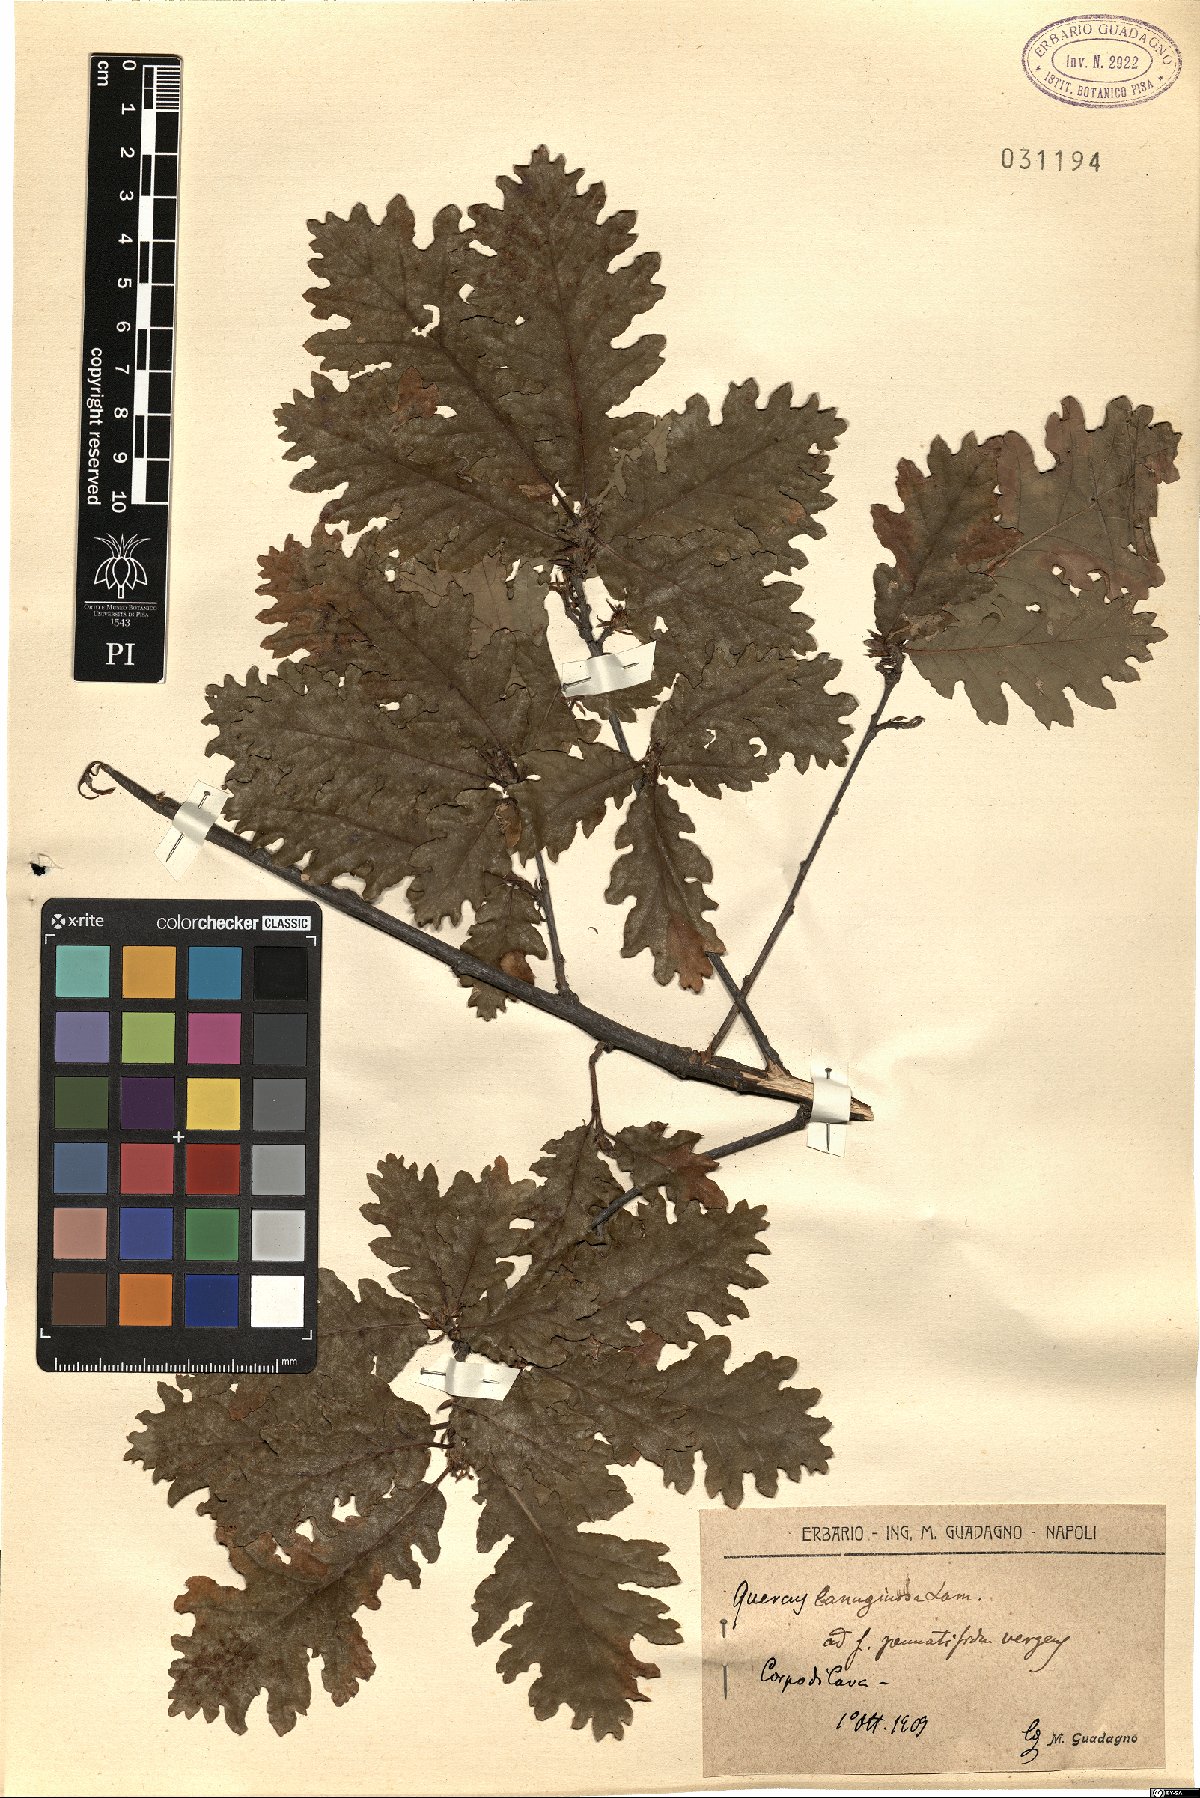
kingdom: Plantae
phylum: Tracheophyta
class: Magnoliopsida
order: Fagales
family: Fagaceae
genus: Quercus
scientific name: Quercus pubescens
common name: Downy oak
